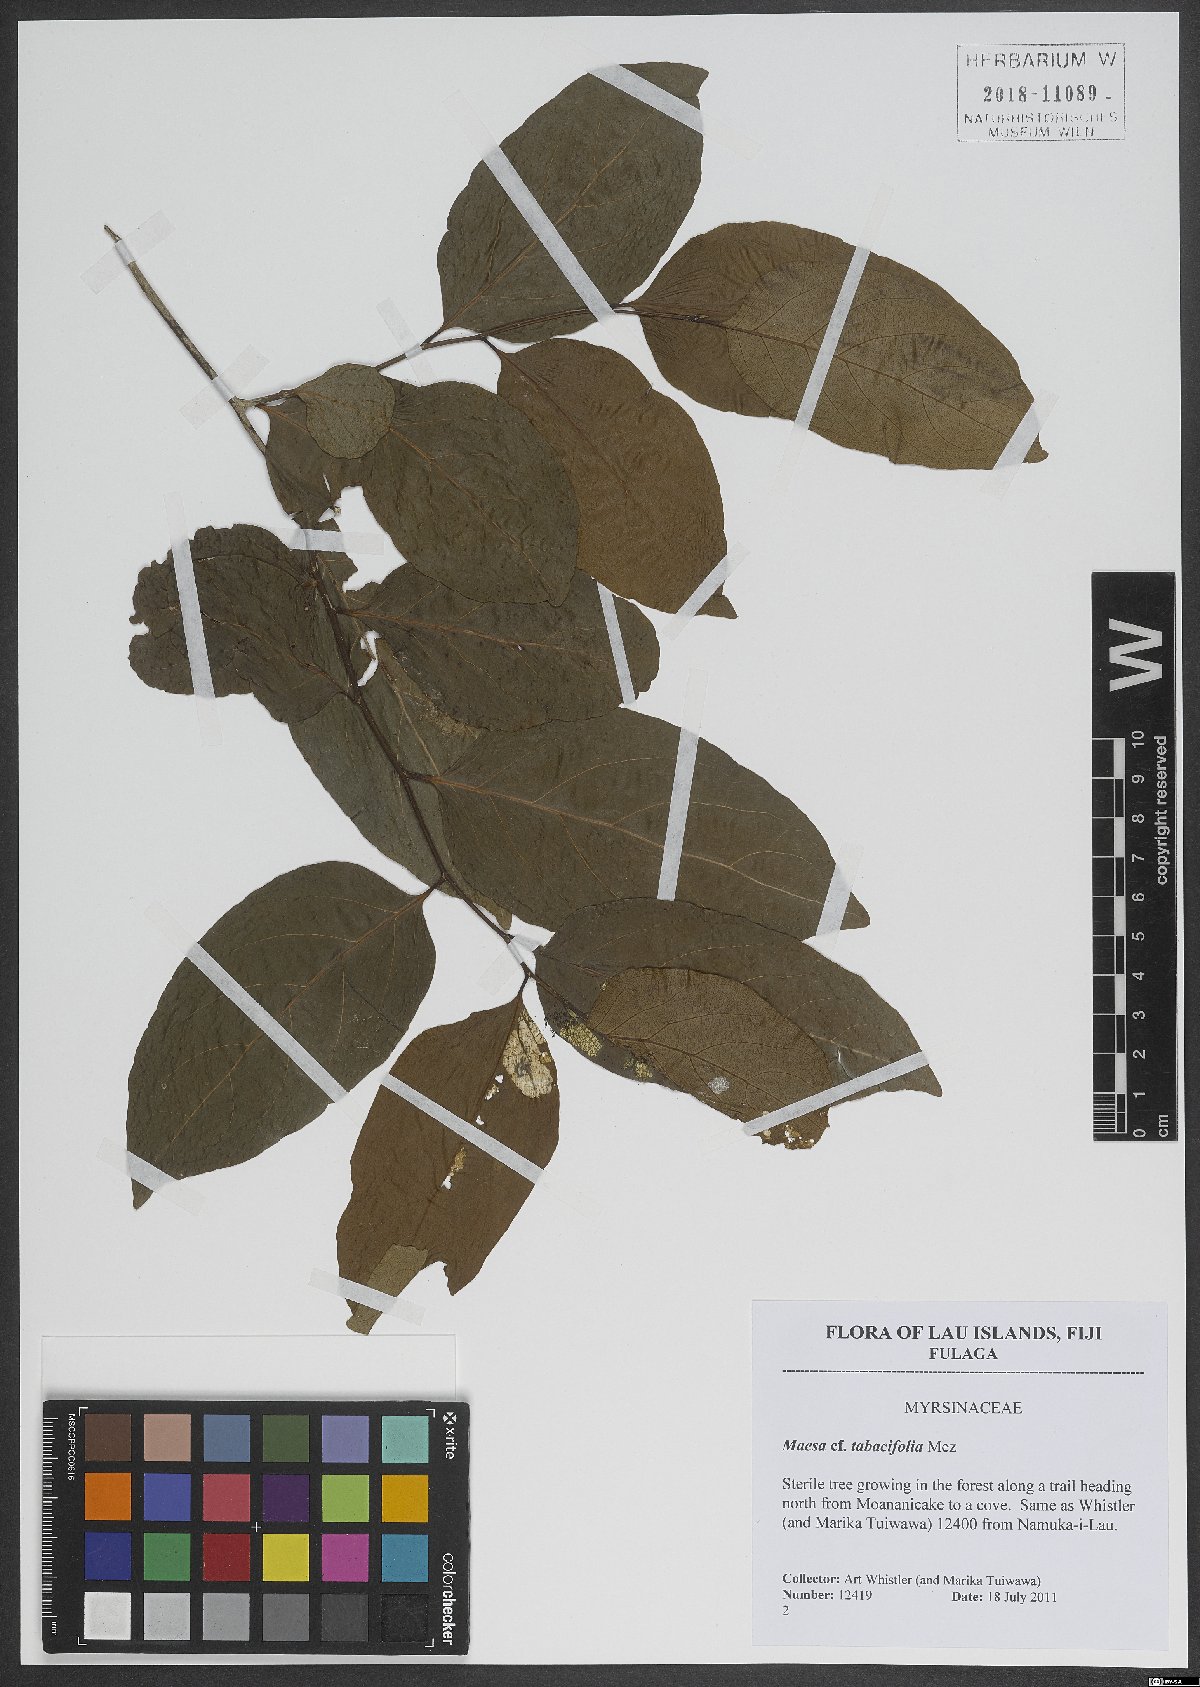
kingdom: Plantae
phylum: Tracheophyta
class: Magnoliopsida
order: Ericales
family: Primulaceae
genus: Maesa
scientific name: Maesa tabacifolia
